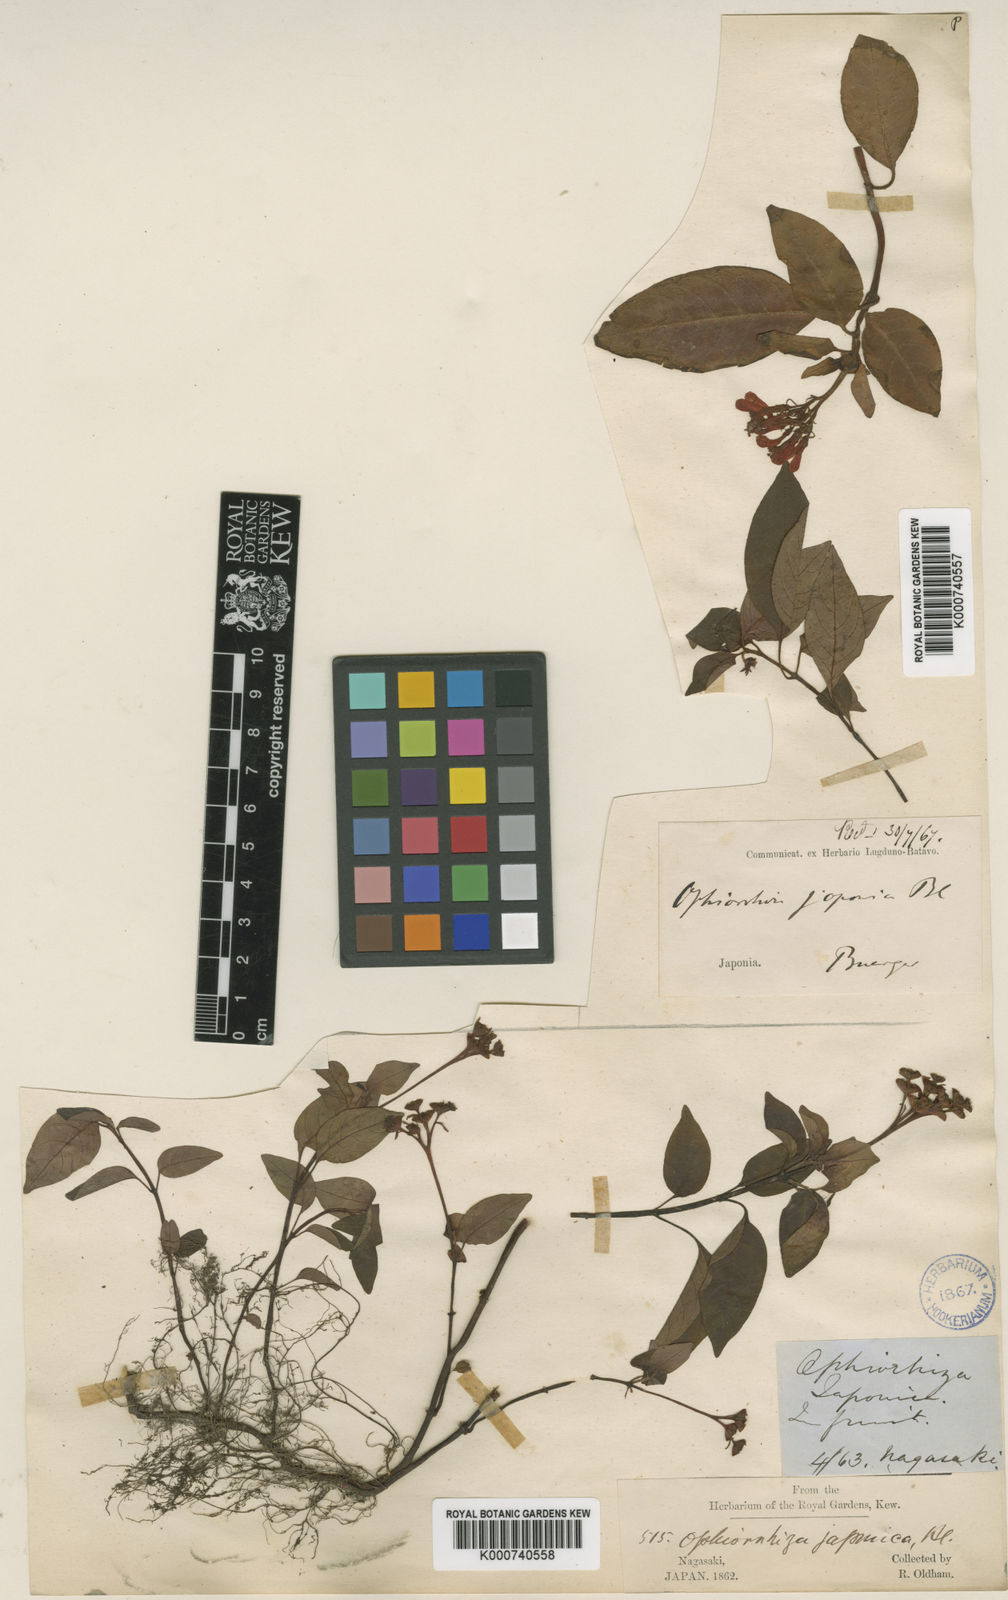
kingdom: Plantae
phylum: Tracheophyta
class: Magnoliopsida
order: Gentianales
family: Rubiaceae
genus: Ophiorrhiza
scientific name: Ophiorrhiza japonica
